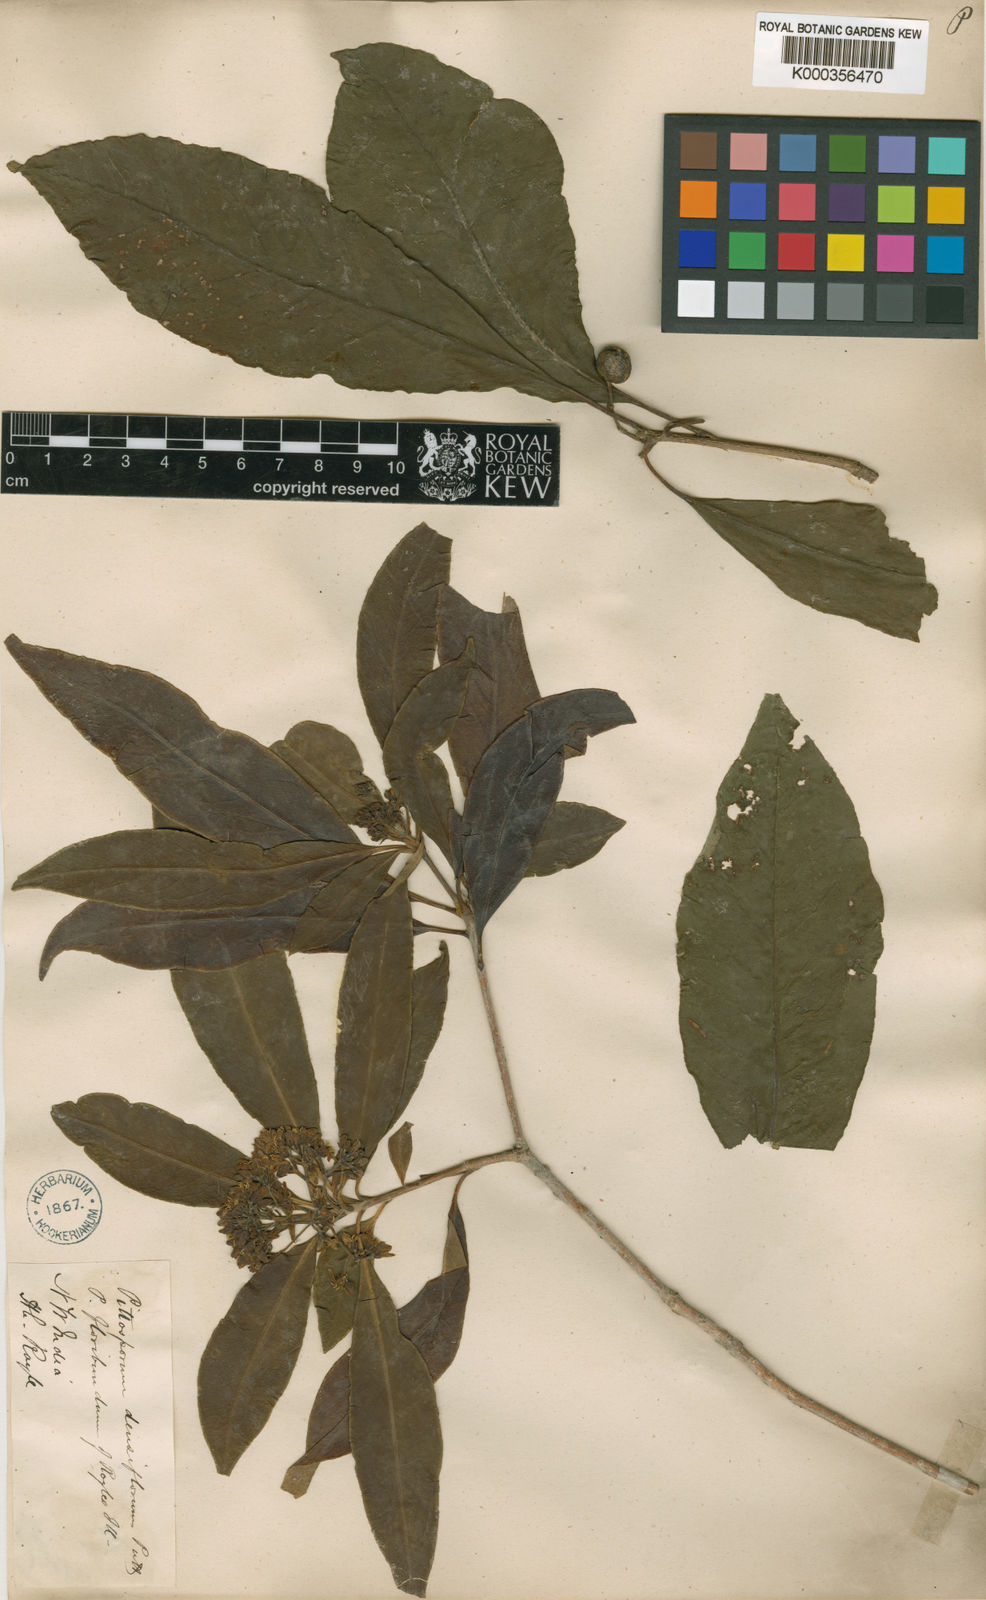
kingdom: Plantae
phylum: Tracheophyta
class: Magnoliopsida
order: Apiales
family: Pittosporaceae
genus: Pittosporum
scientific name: Pittosporum densiflorum
